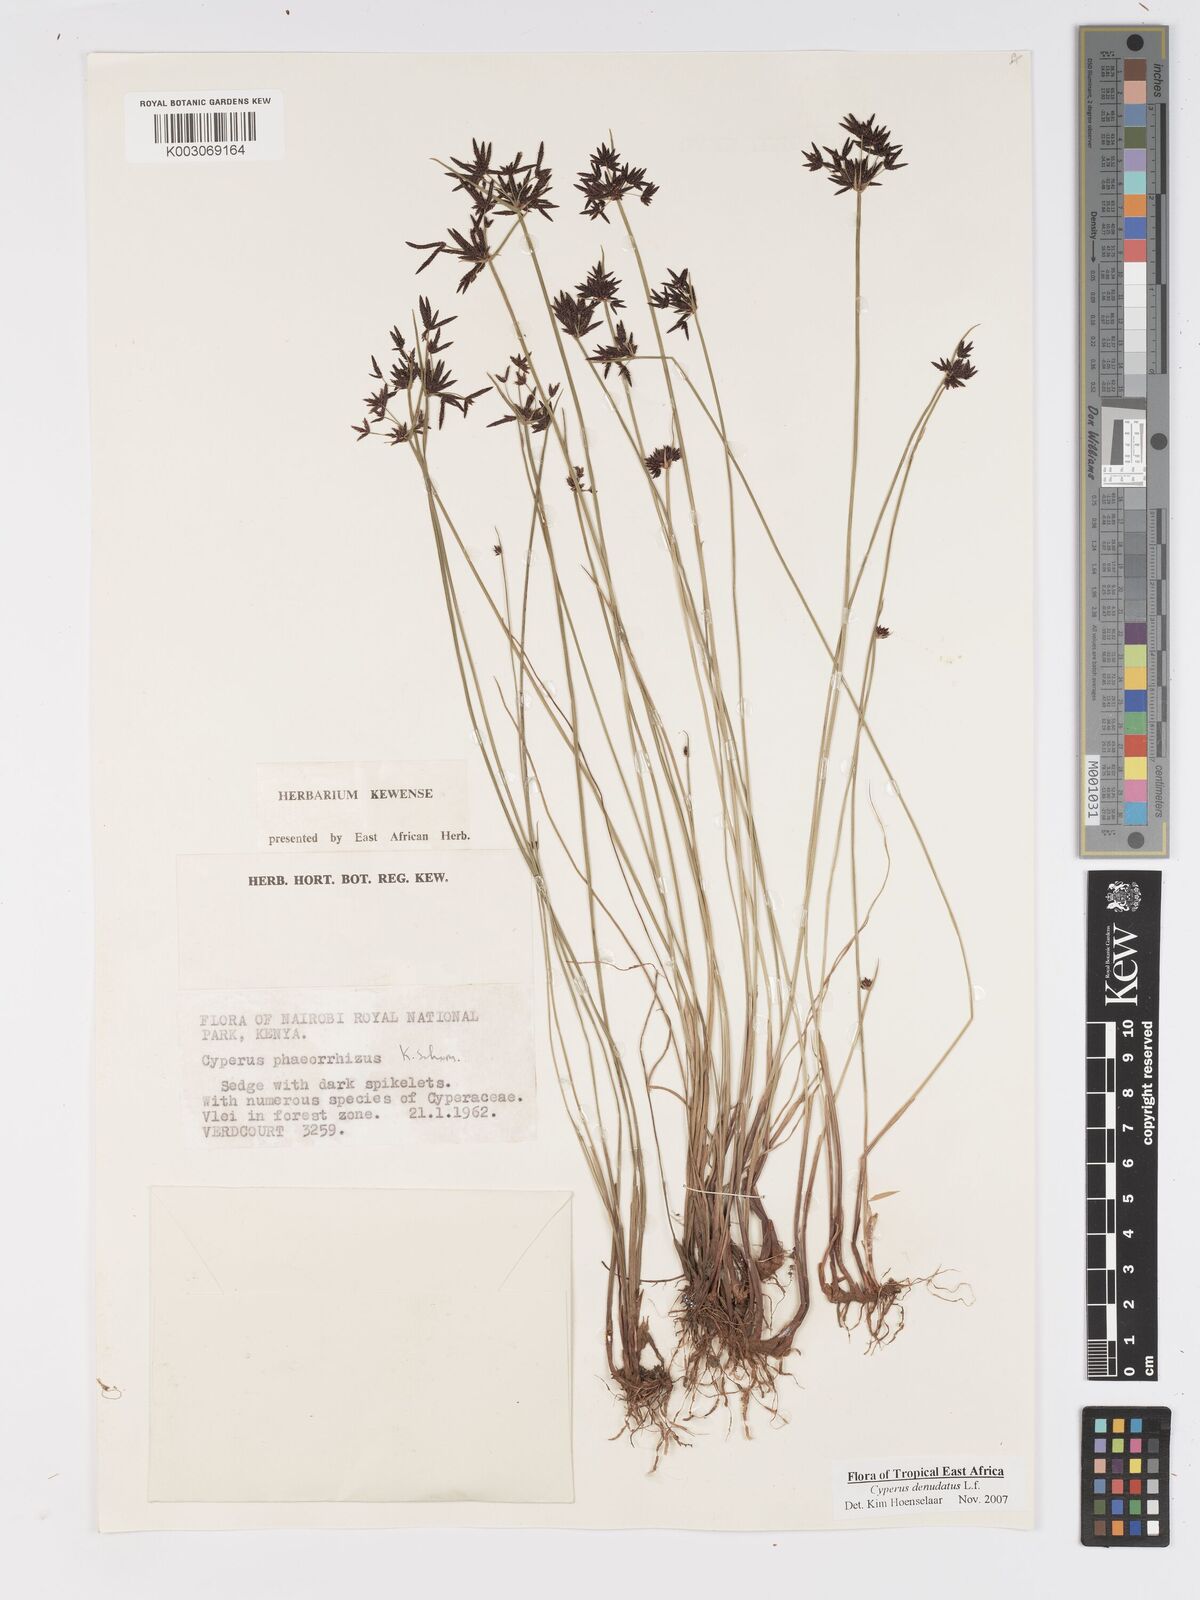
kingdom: Plantae
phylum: Tracheophyta
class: Liliopsida
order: Poales
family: Cyperaceae
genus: Cyperus
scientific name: Cyperus denudatus
